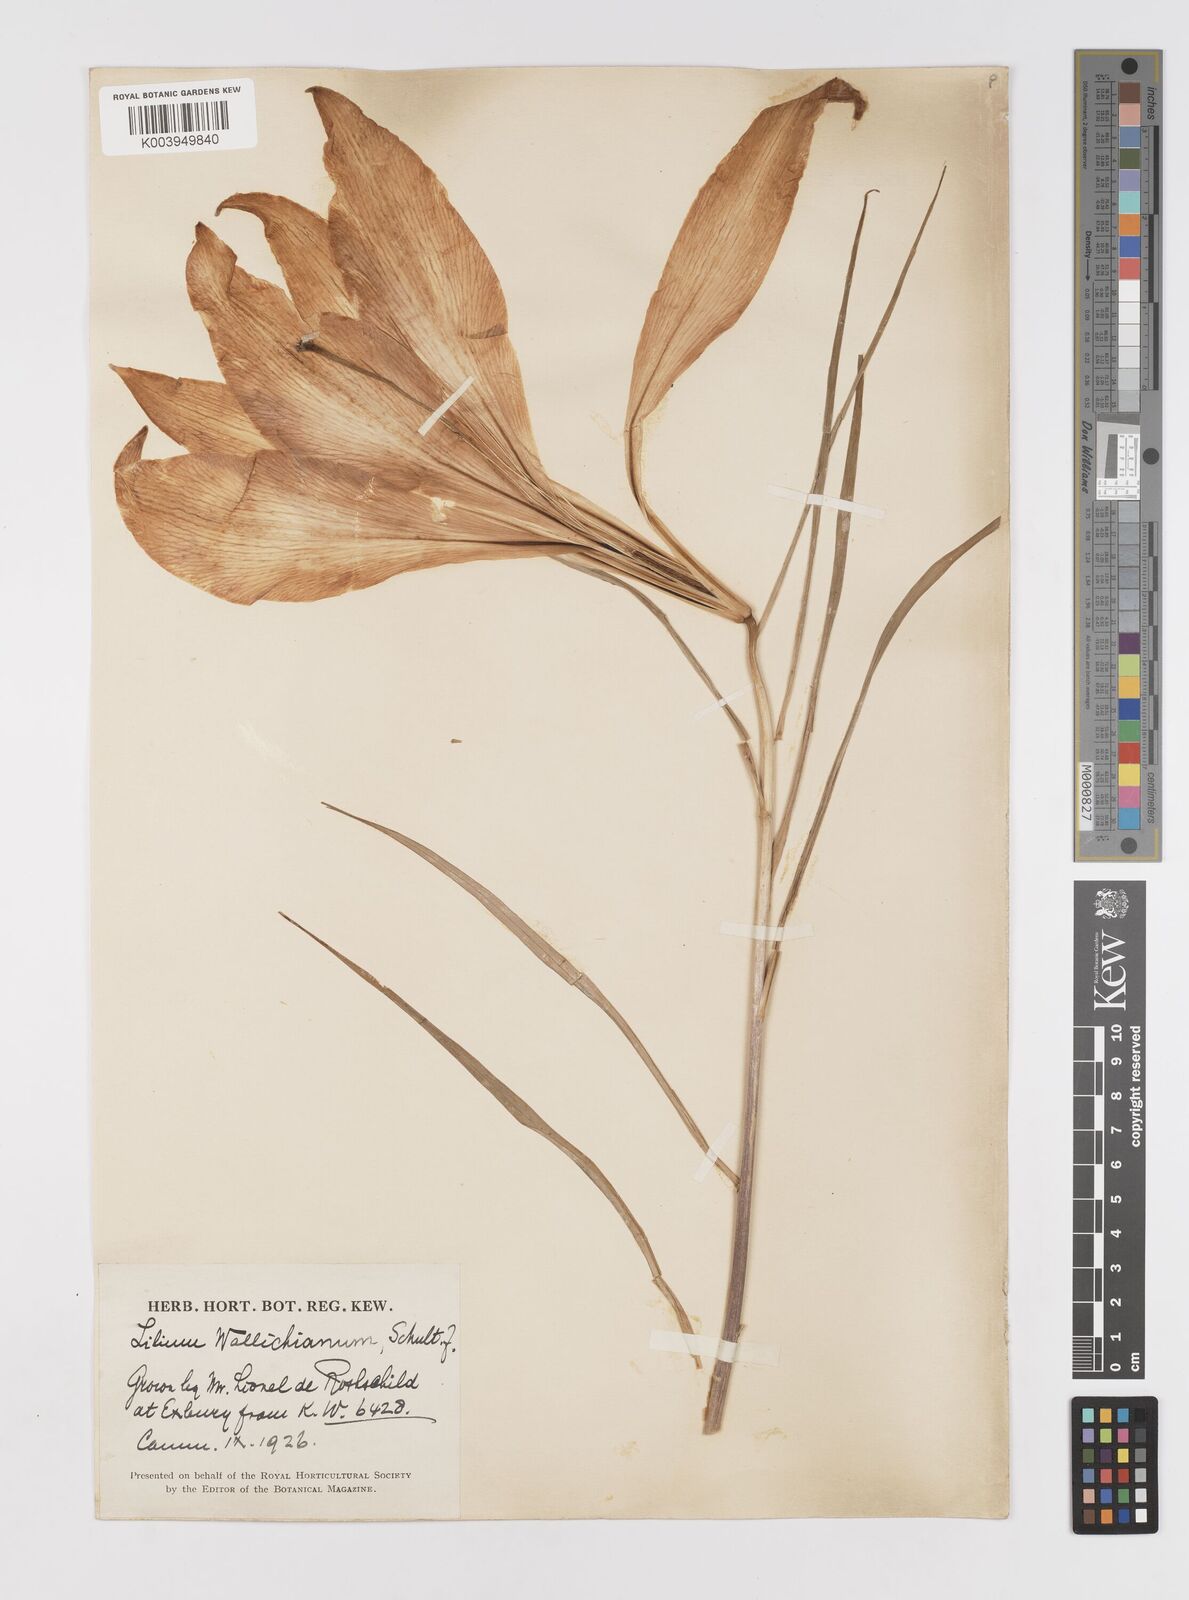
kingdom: Plantae
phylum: Tracheophyta
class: Liliopsida
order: Liliales
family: Liliaceae
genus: Lilium
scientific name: Lilium wallichianum
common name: Wallich's lily
